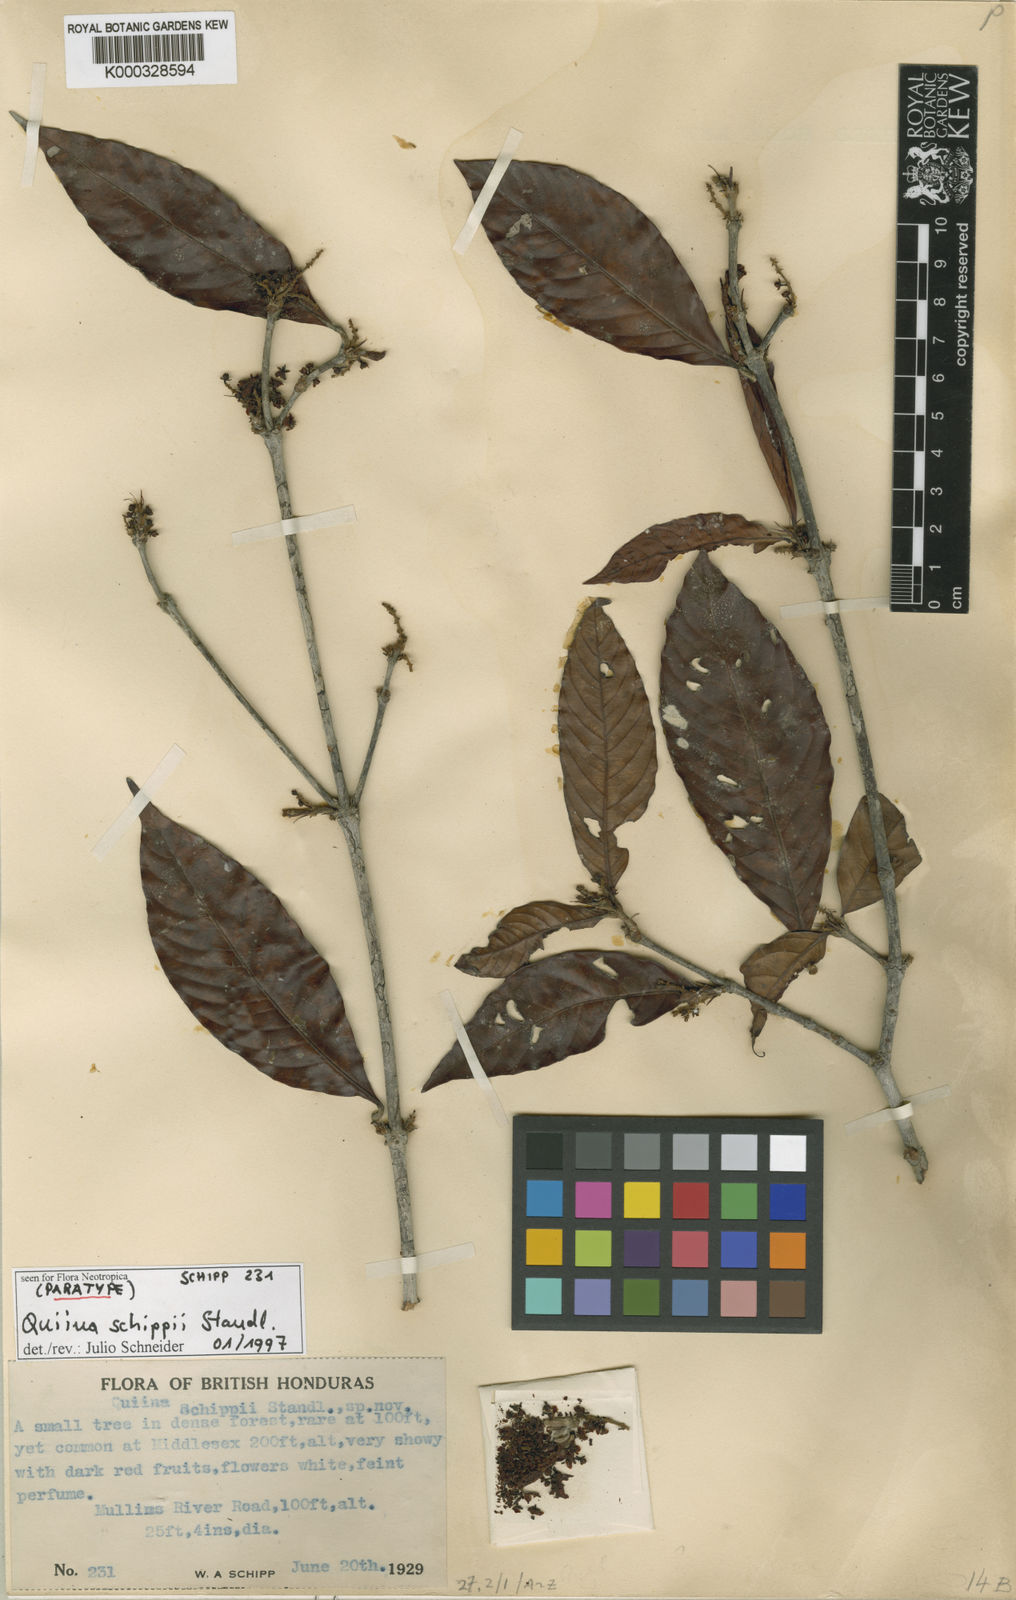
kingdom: Plantae
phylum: Tracheophyta
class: Magnoliopsida
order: Malpighiales
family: Quiinaceae
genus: Quiina
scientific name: Quiina macrophylla
